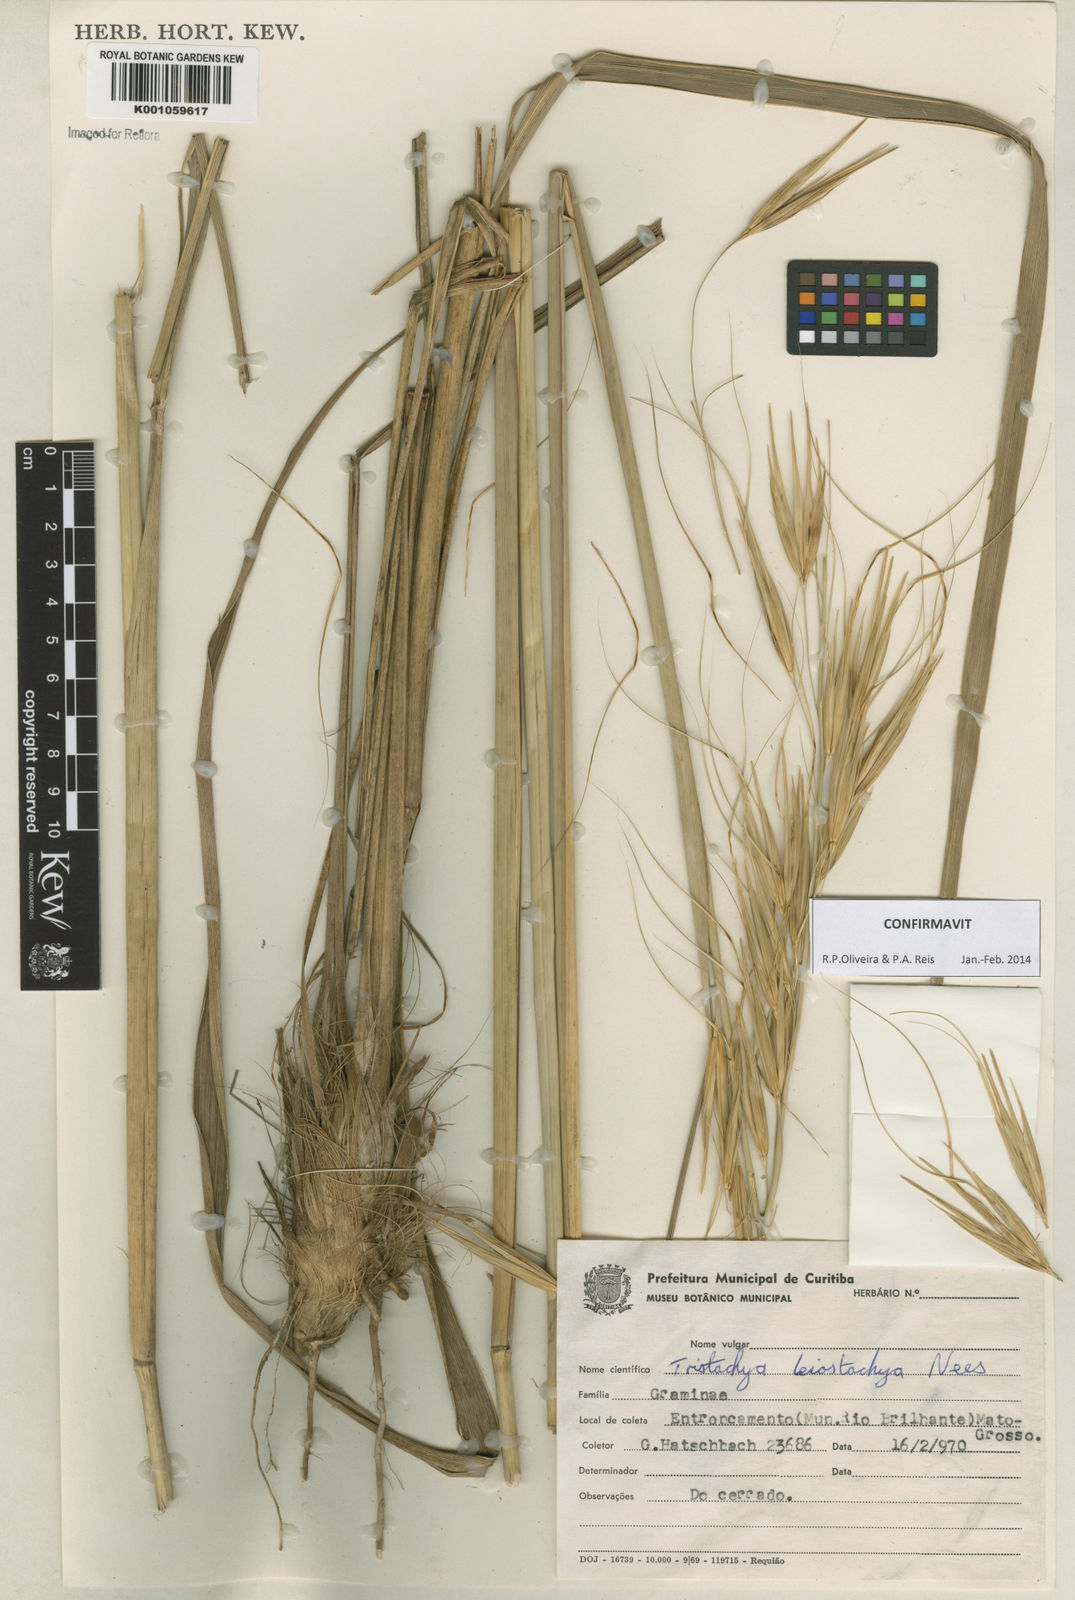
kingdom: Plantae
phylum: Tracheophyta
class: Liliopsida
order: Poales
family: Poaceae
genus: Tristachya
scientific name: Tristachya leiostachya
